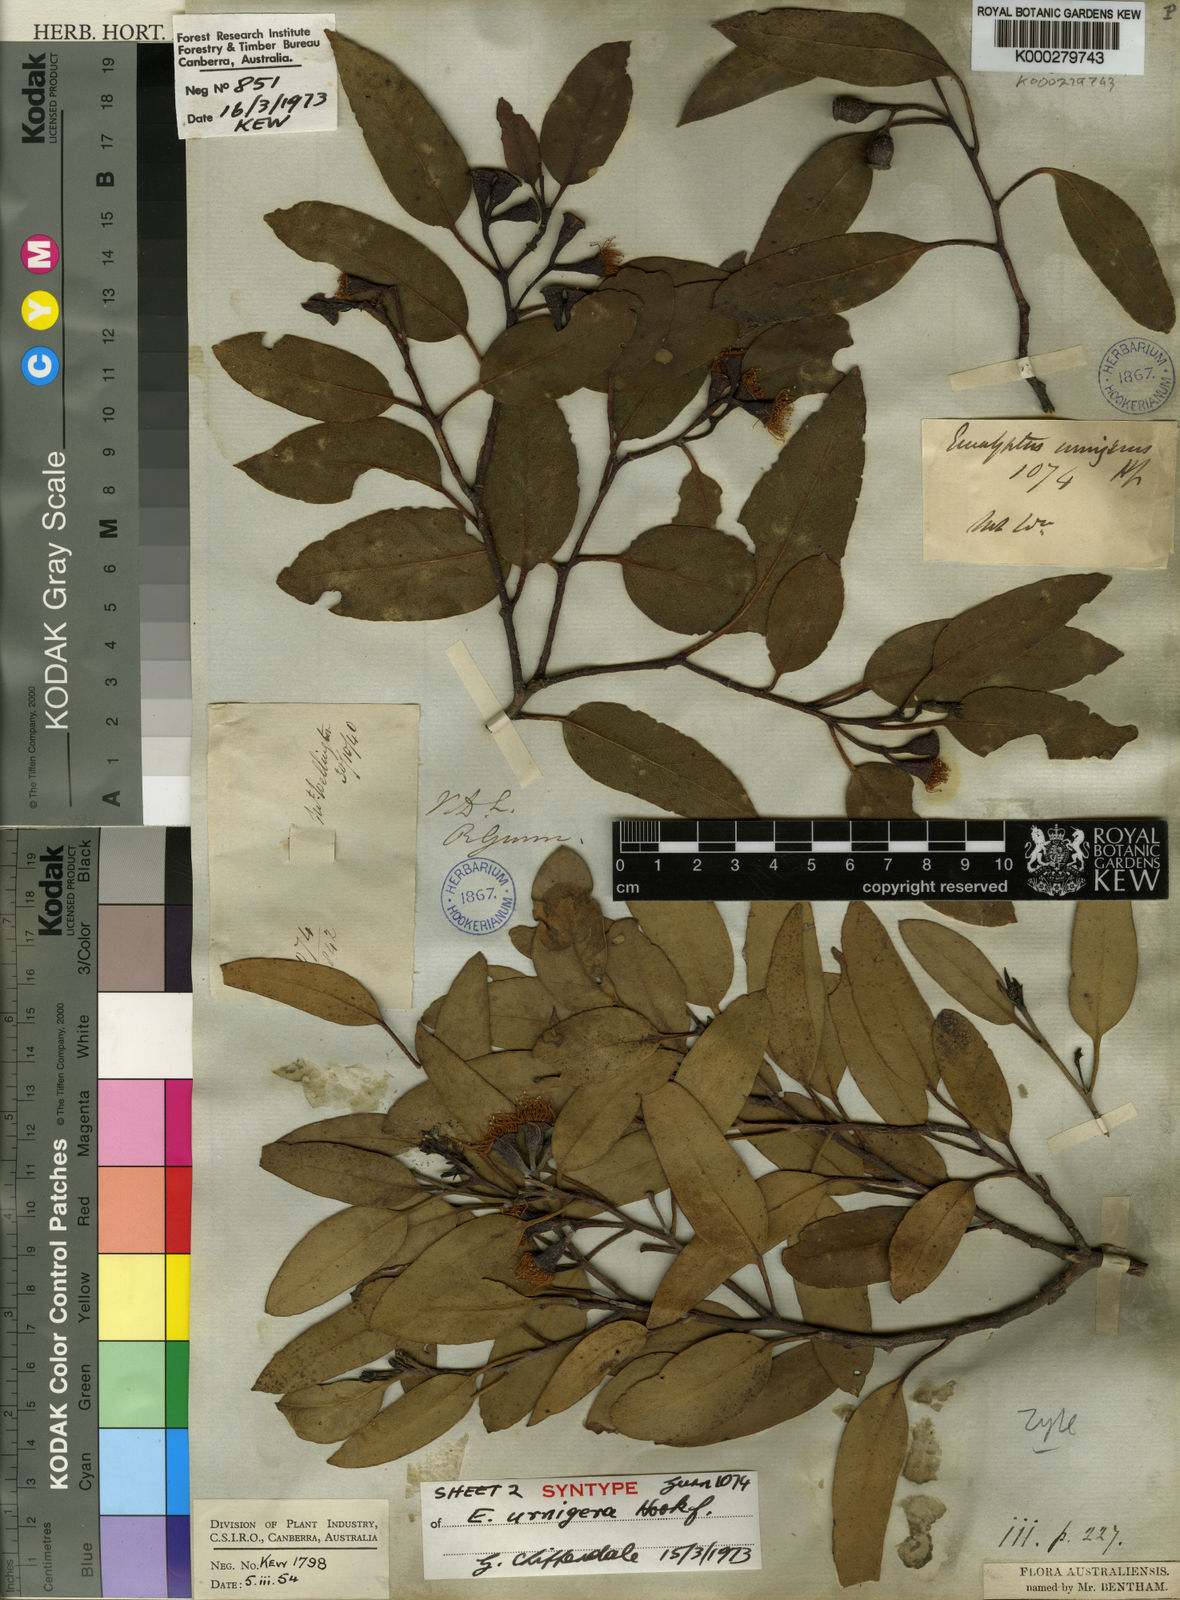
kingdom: Plantae
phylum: Tracheophyta
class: Magnoliopsida
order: Myrtales
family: Myrtaceae
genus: Eucalyptus
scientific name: Eucalyptus urnigera
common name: Urn-fruited gum
